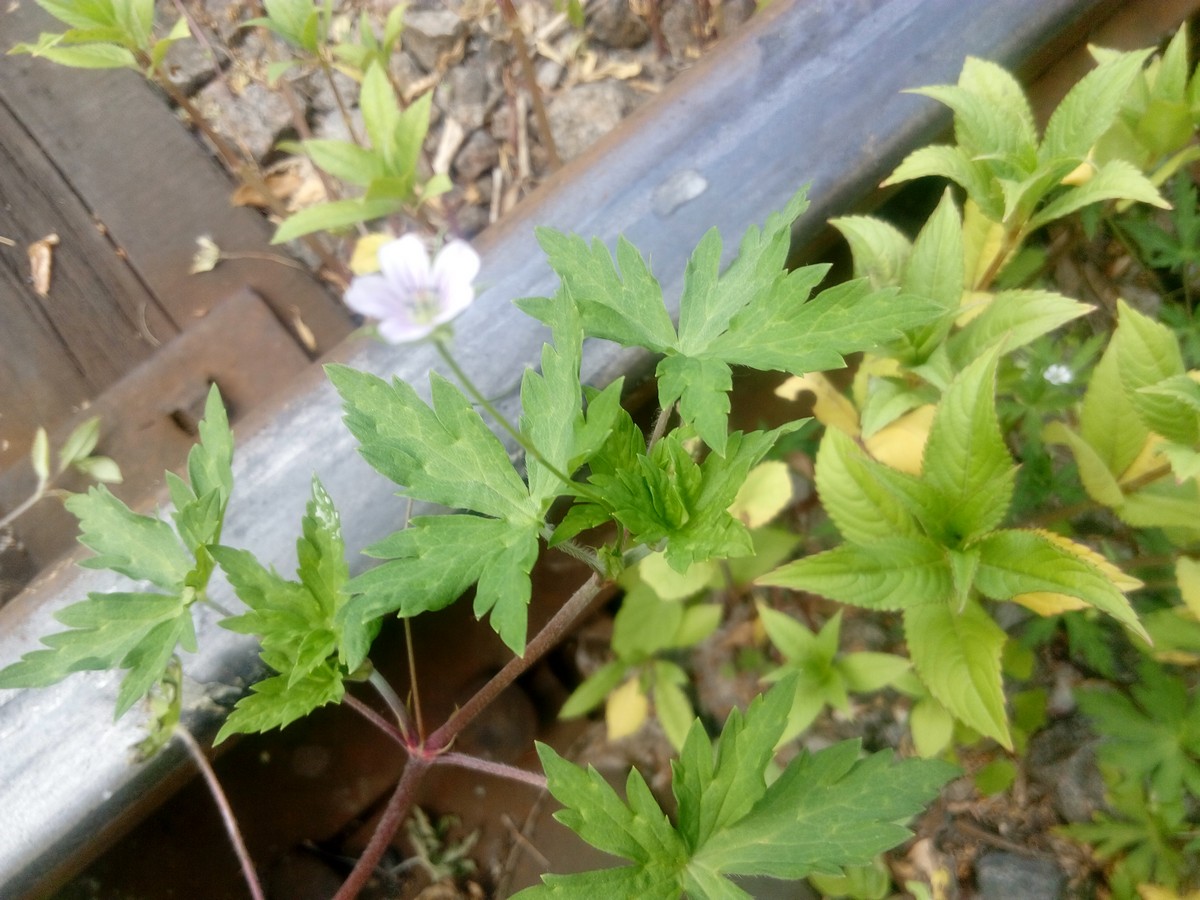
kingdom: Plantae
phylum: Tracheophyta
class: Magnoliopsida
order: Geraniales
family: Geraniaceae
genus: Geranium
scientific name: Geranium sibiricum
